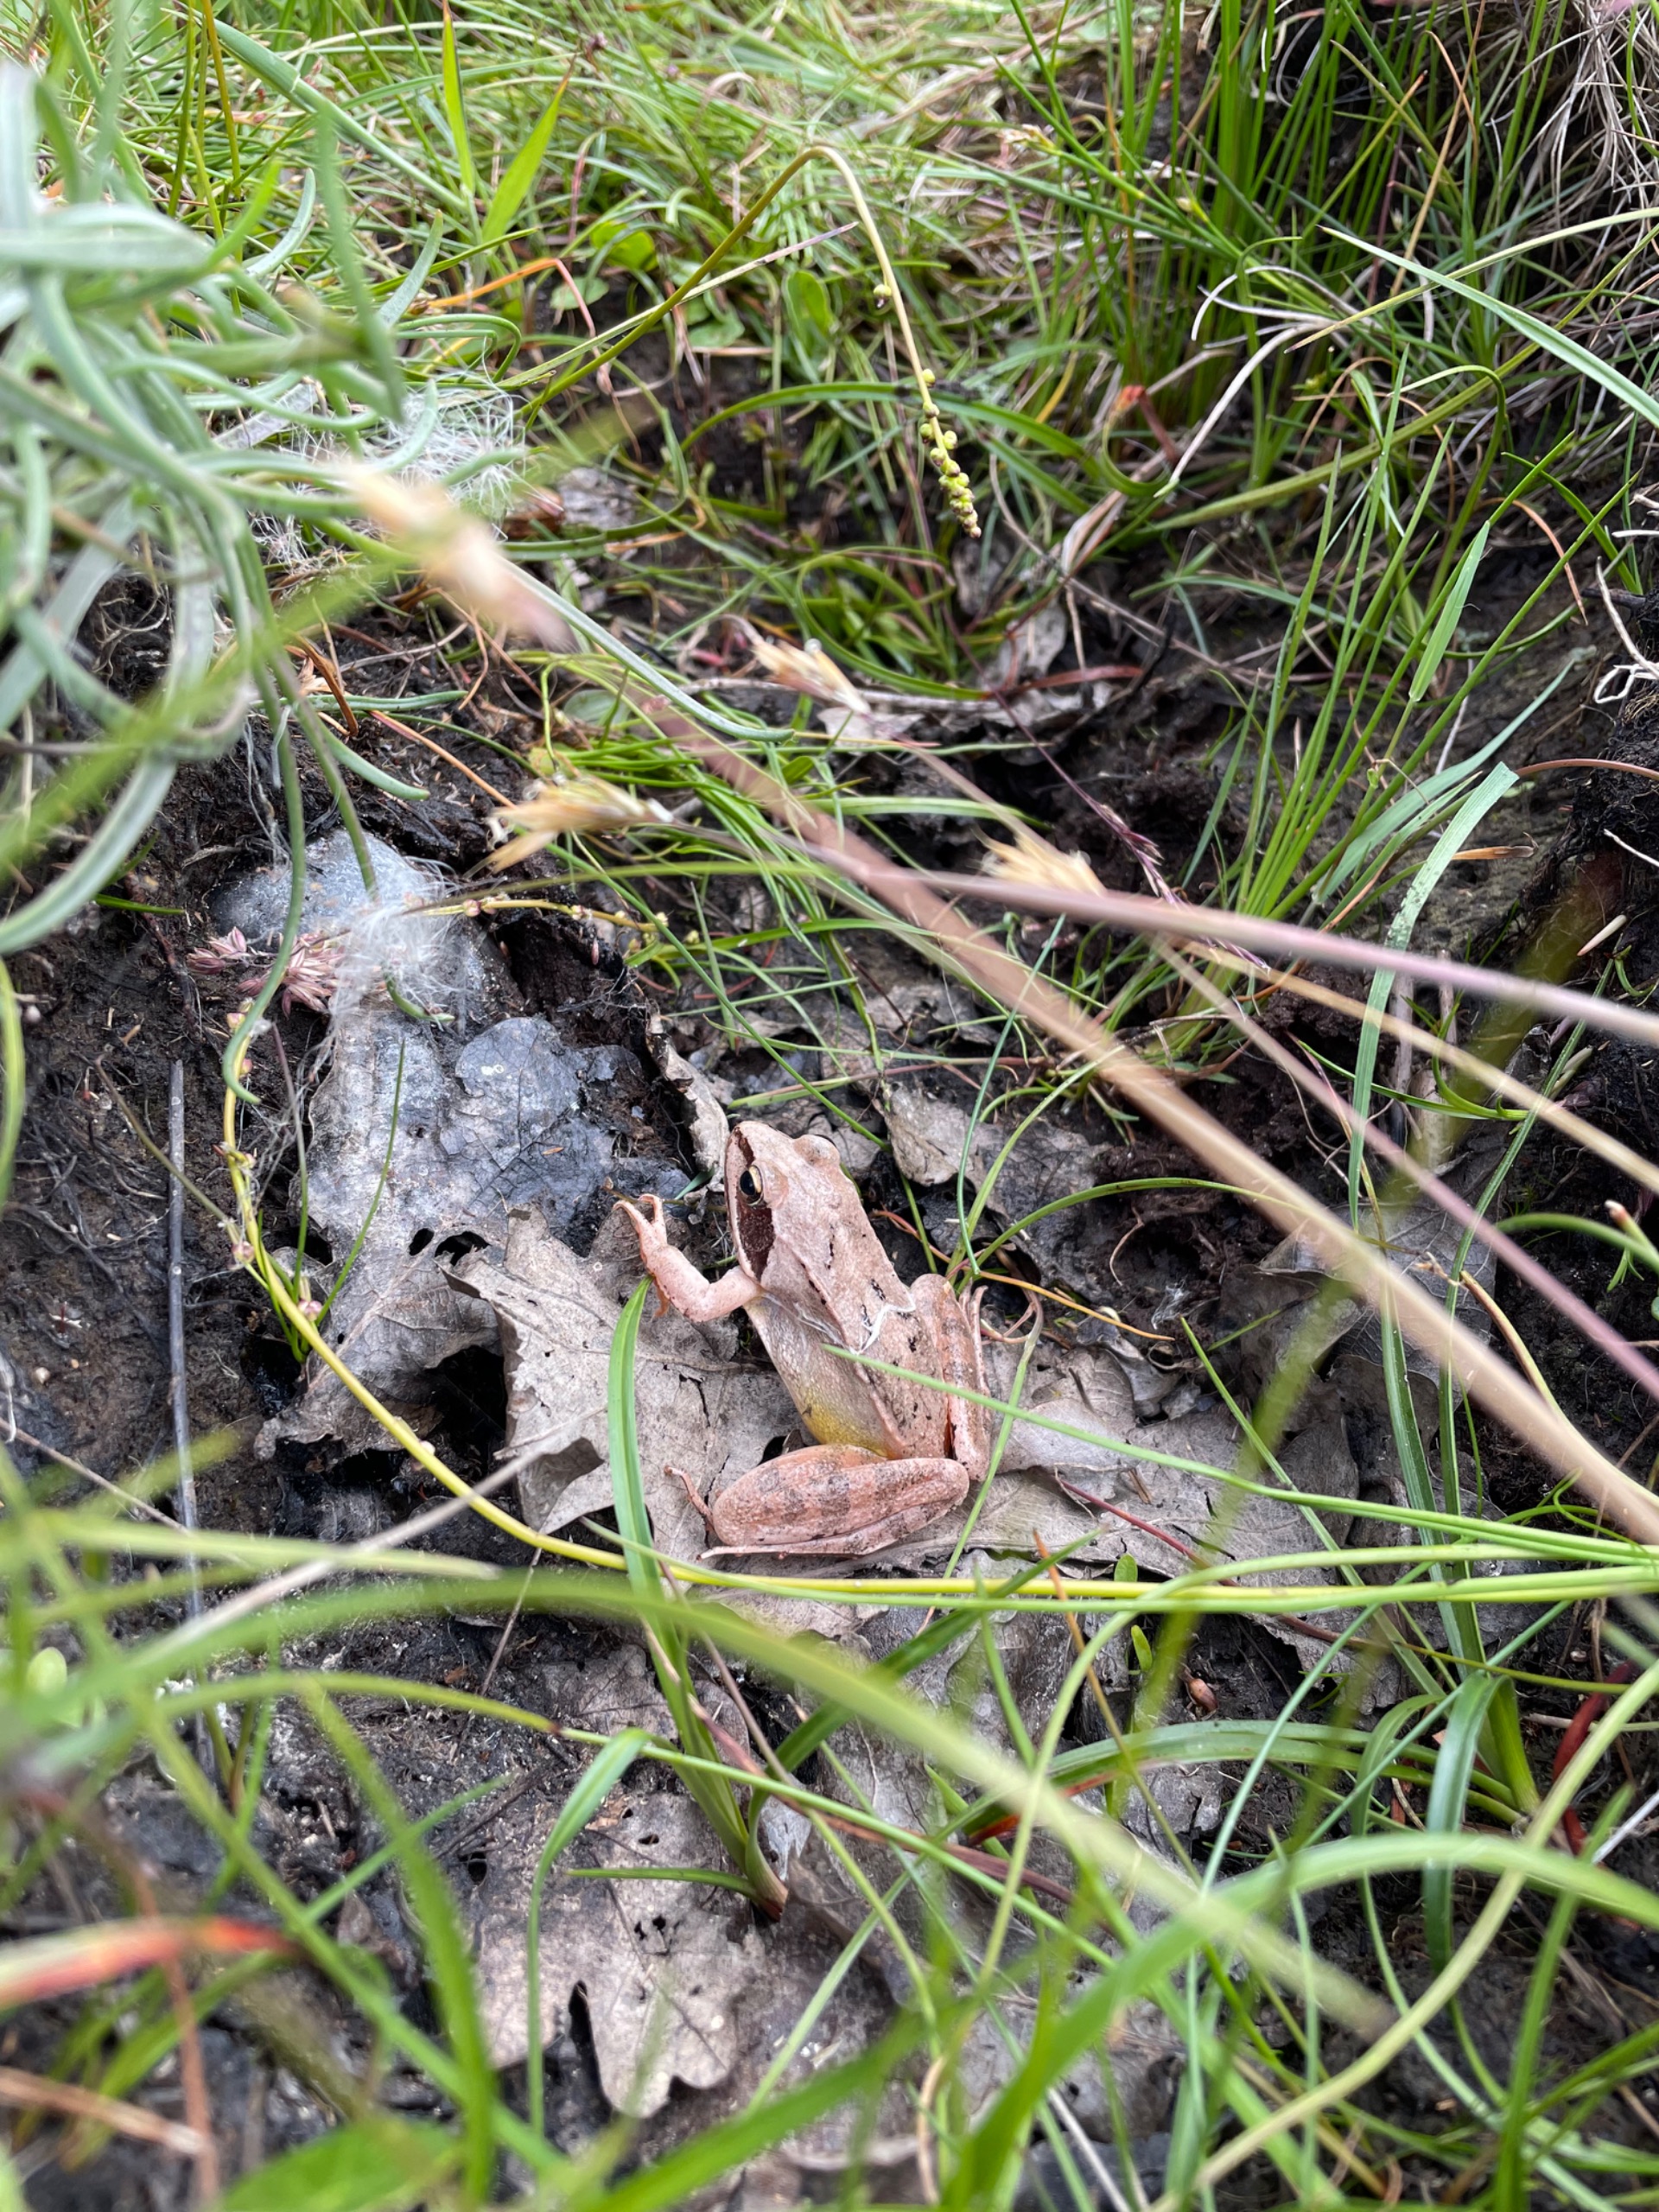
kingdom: Animalia
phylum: Chordata
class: Amphibia
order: Anura
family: Ranidae
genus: Rana
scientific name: Rana dalmatina
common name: Springfrø
